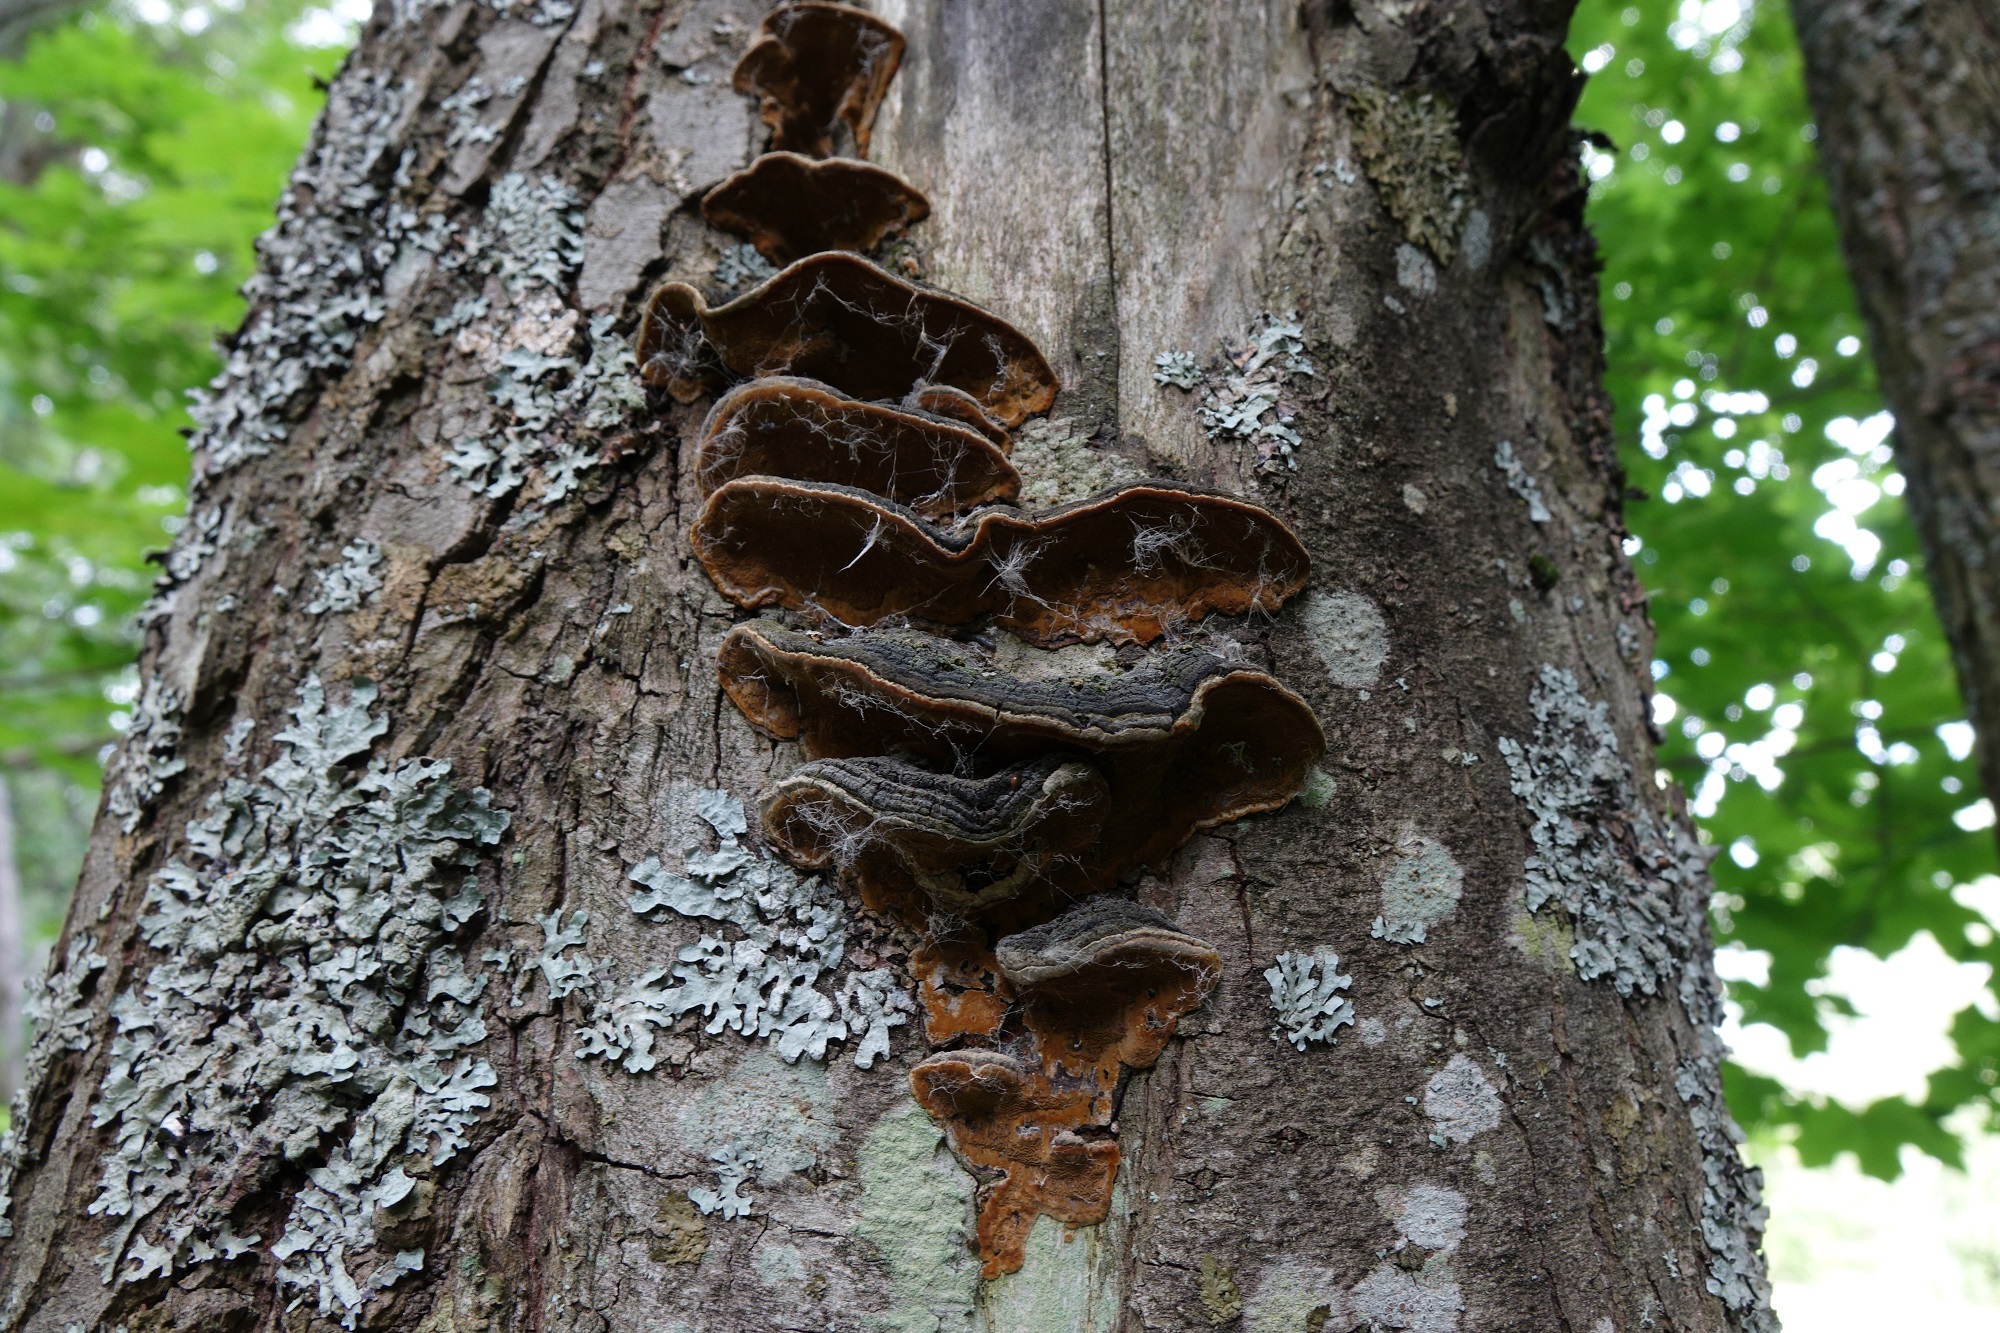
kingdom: Fungi
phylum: Basidiomycota
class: Agaricomycetes
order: Hymenochaetales
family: Hymenochaetaceae
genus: Phellinopsis
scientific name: Phellinopsis conchata
